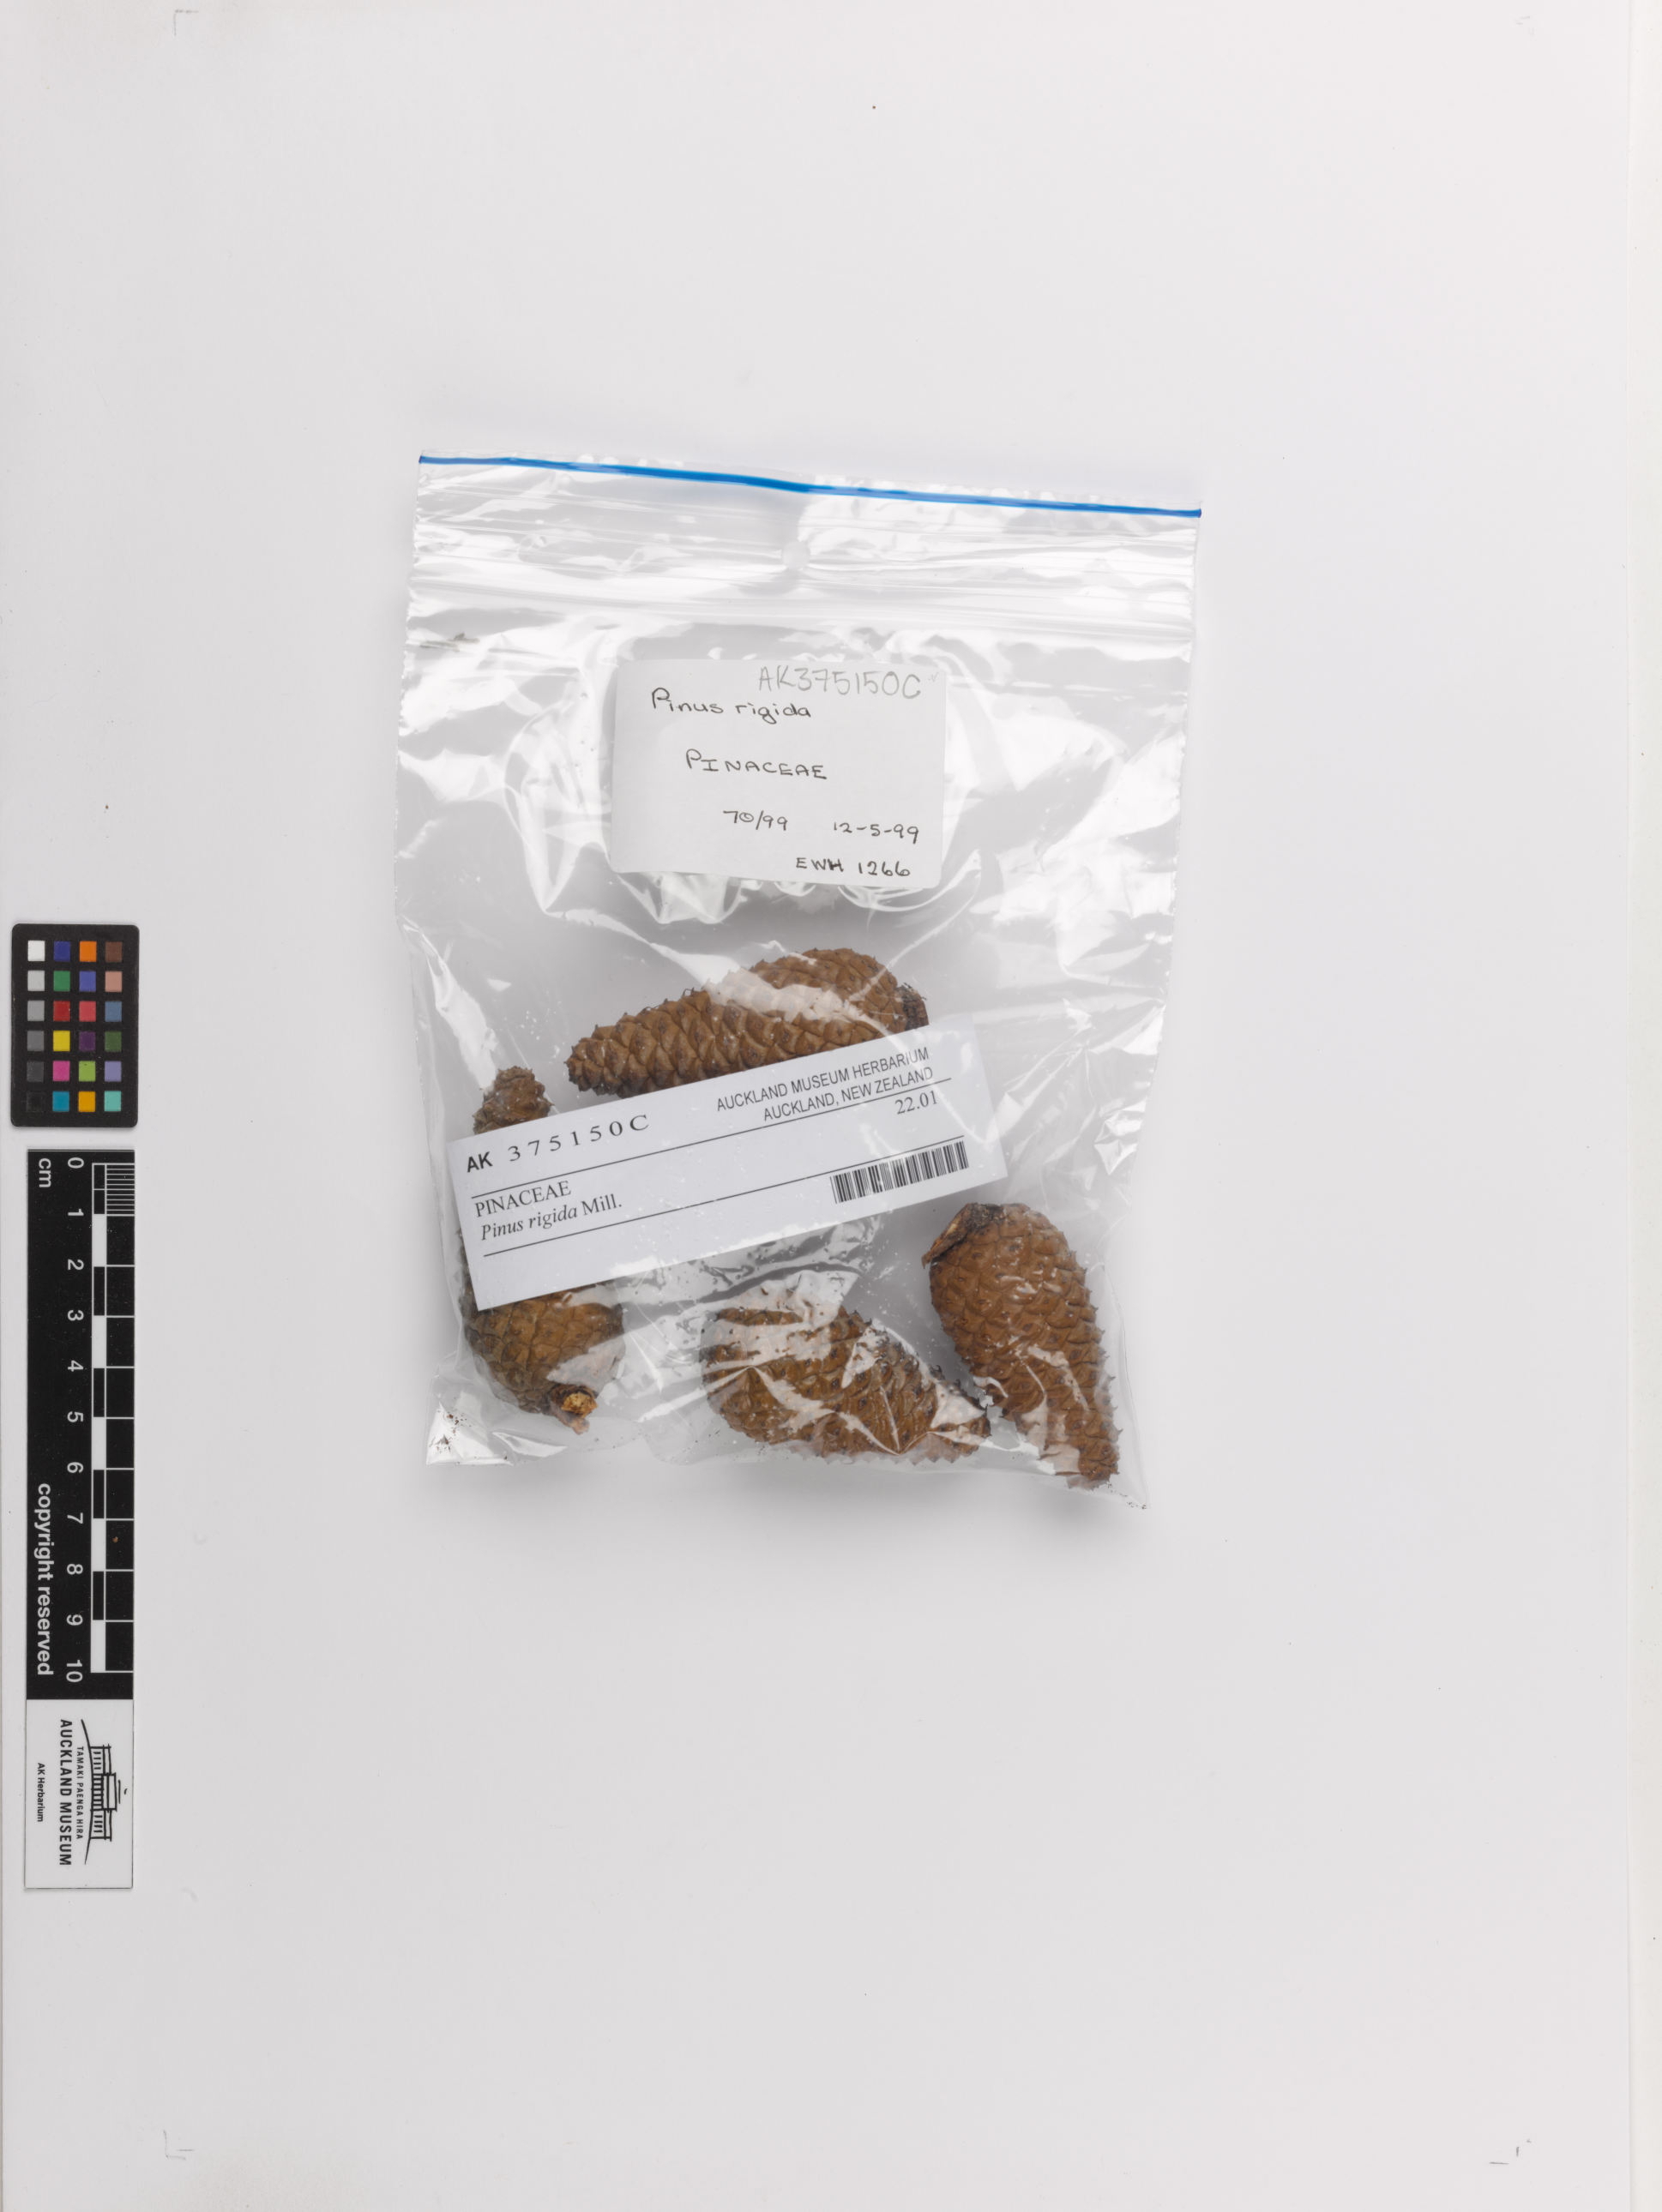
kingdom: Plantae
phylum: Tracheophyta
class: Pinopsida
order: Pinales
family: Pinaceae
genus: Pinus
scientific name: Pinus rigida
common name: Pitch pine
